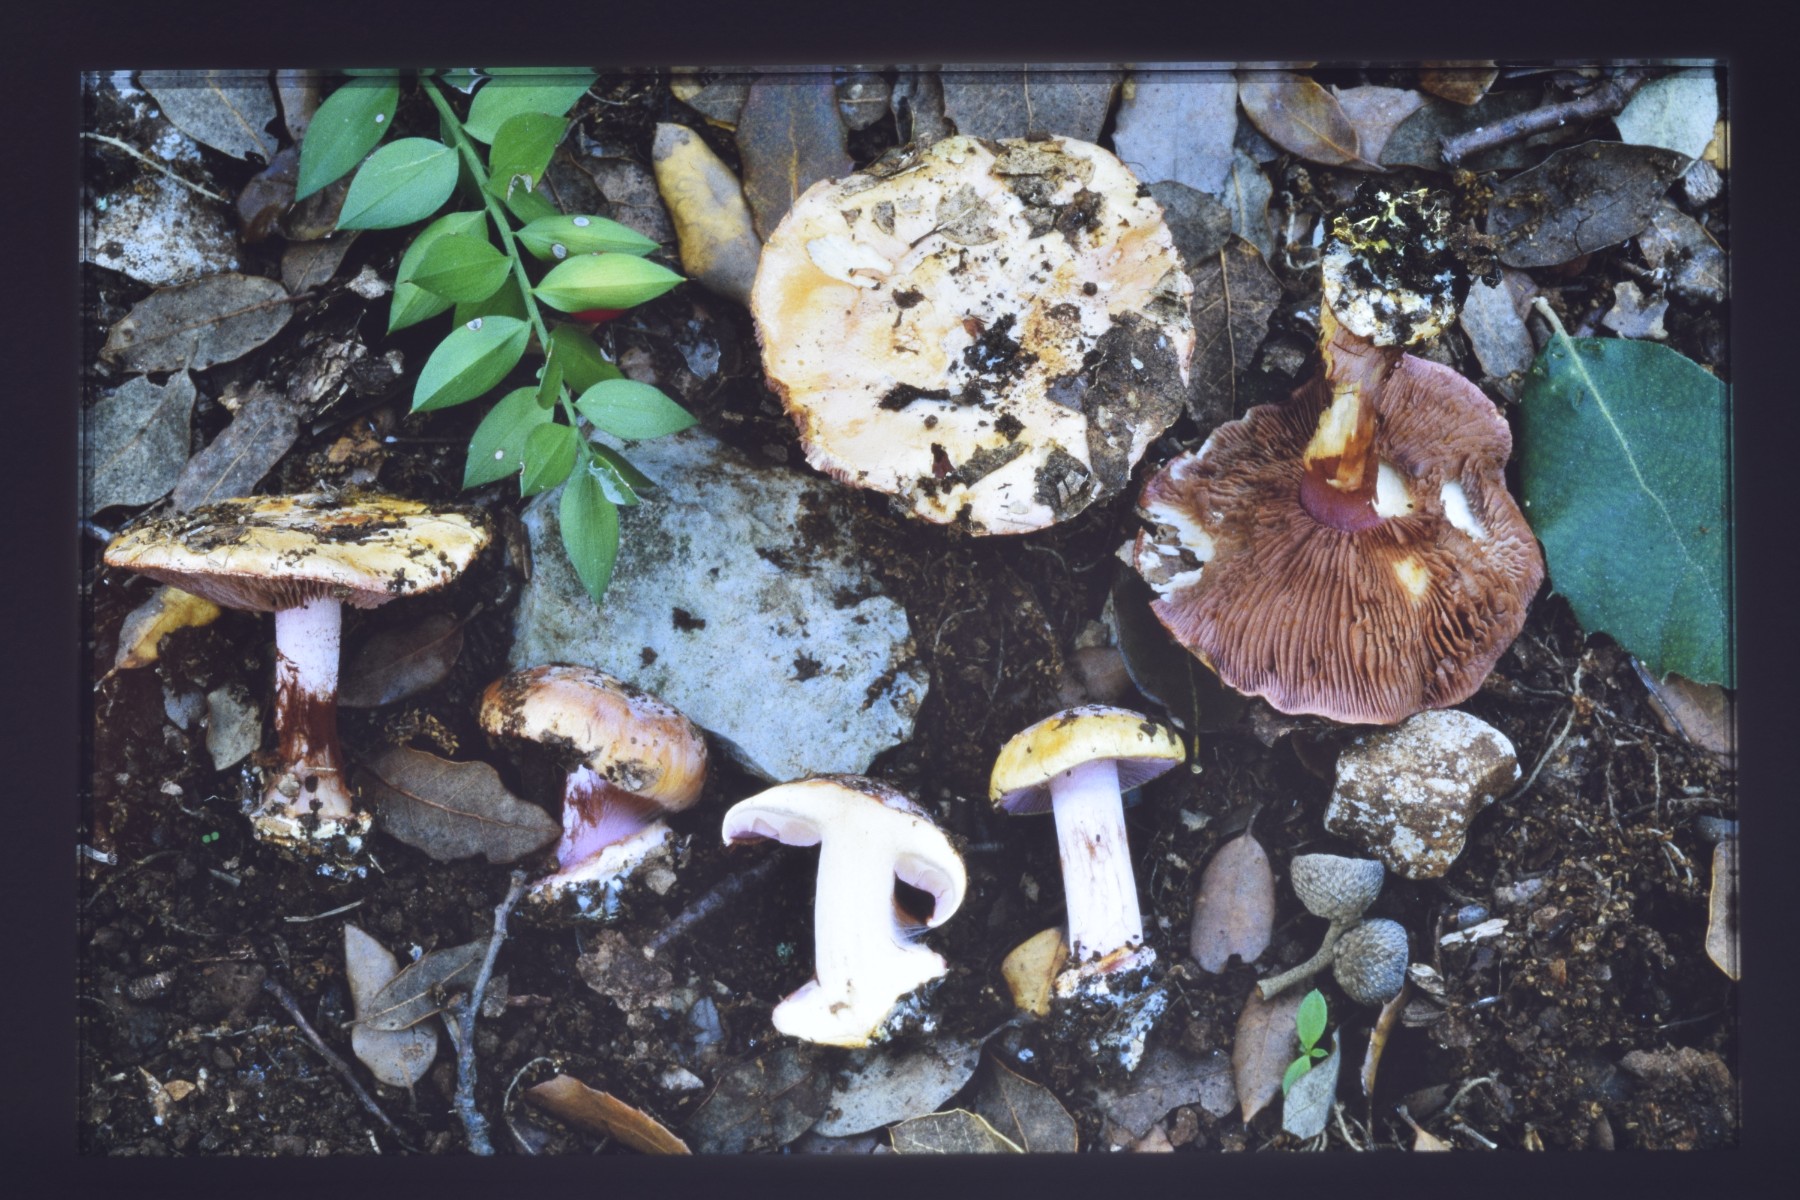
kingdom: Fungi
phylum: Basidiomycota
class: Agaricomycetes
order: Agaricales
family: Cortinariaceae
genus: Calonarius
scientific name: Calonarius splendidior
